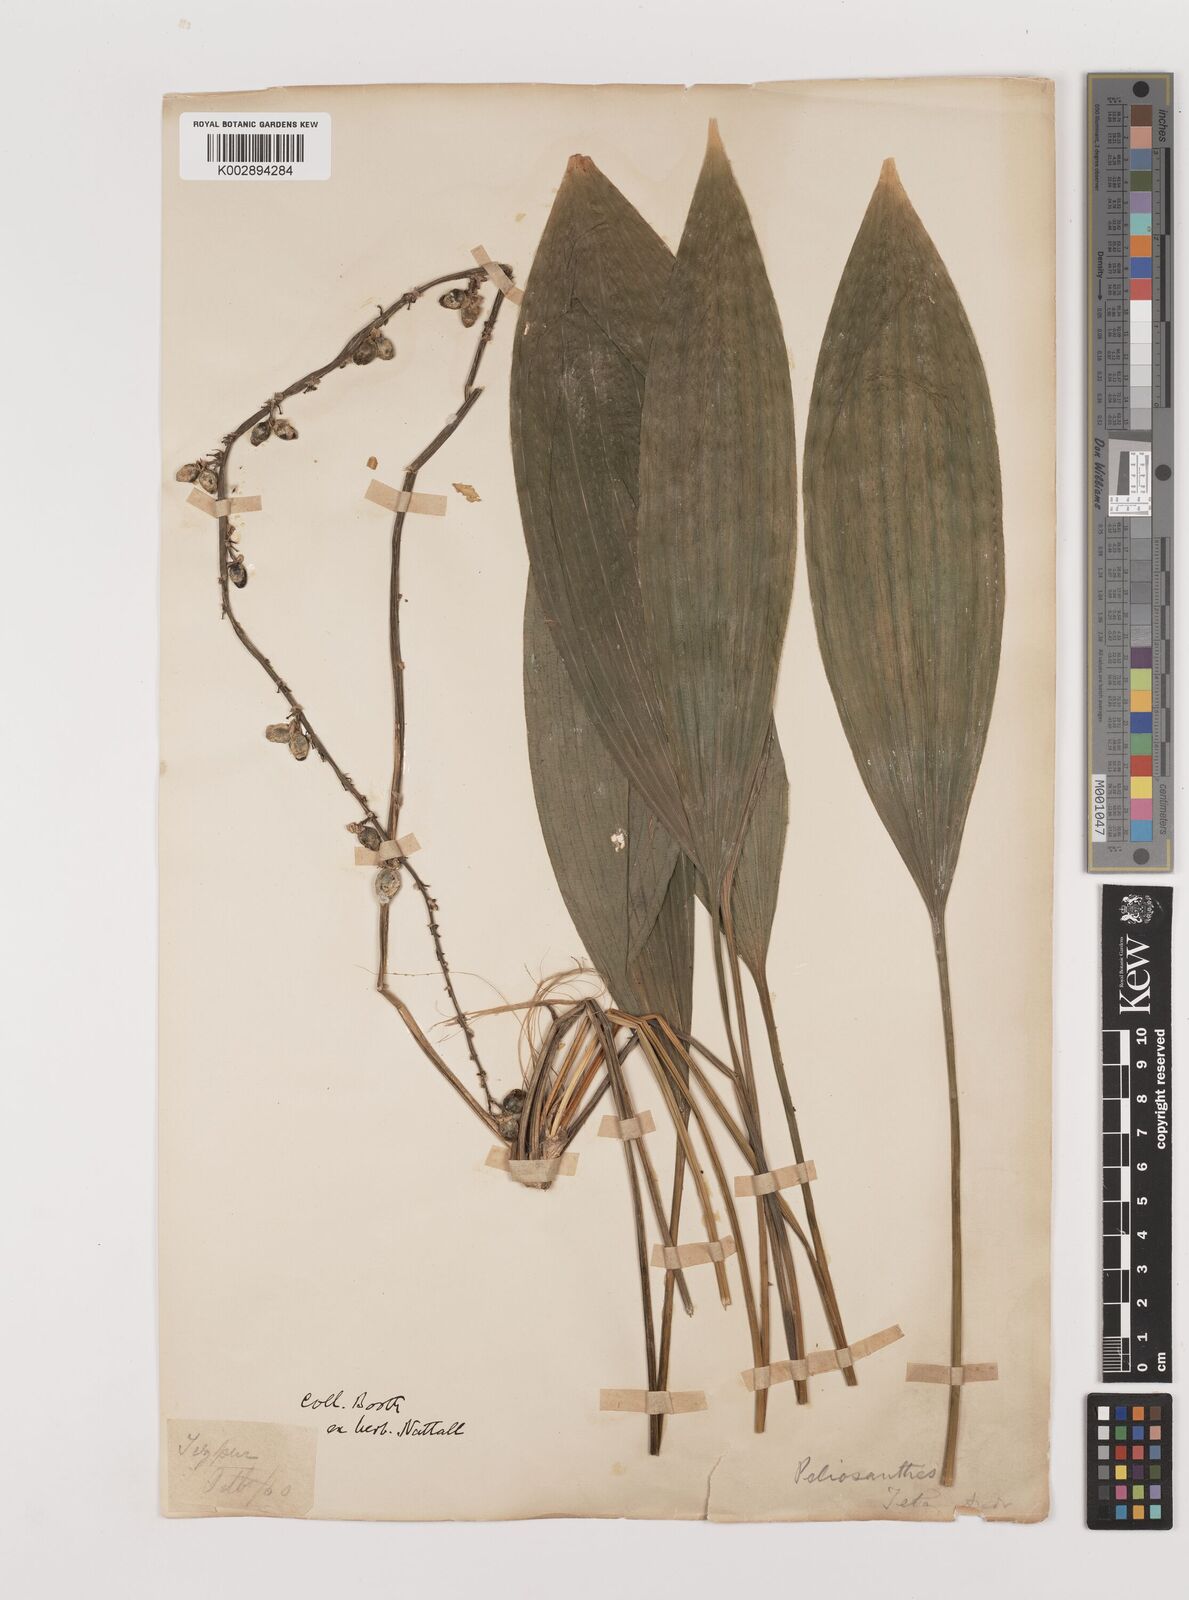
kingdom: Plantae
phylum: Tracheophyta
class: Liliopsida
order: Asparagales
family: Asparagaceae
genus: Peliosanthes
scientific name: Peliosanthes teta
